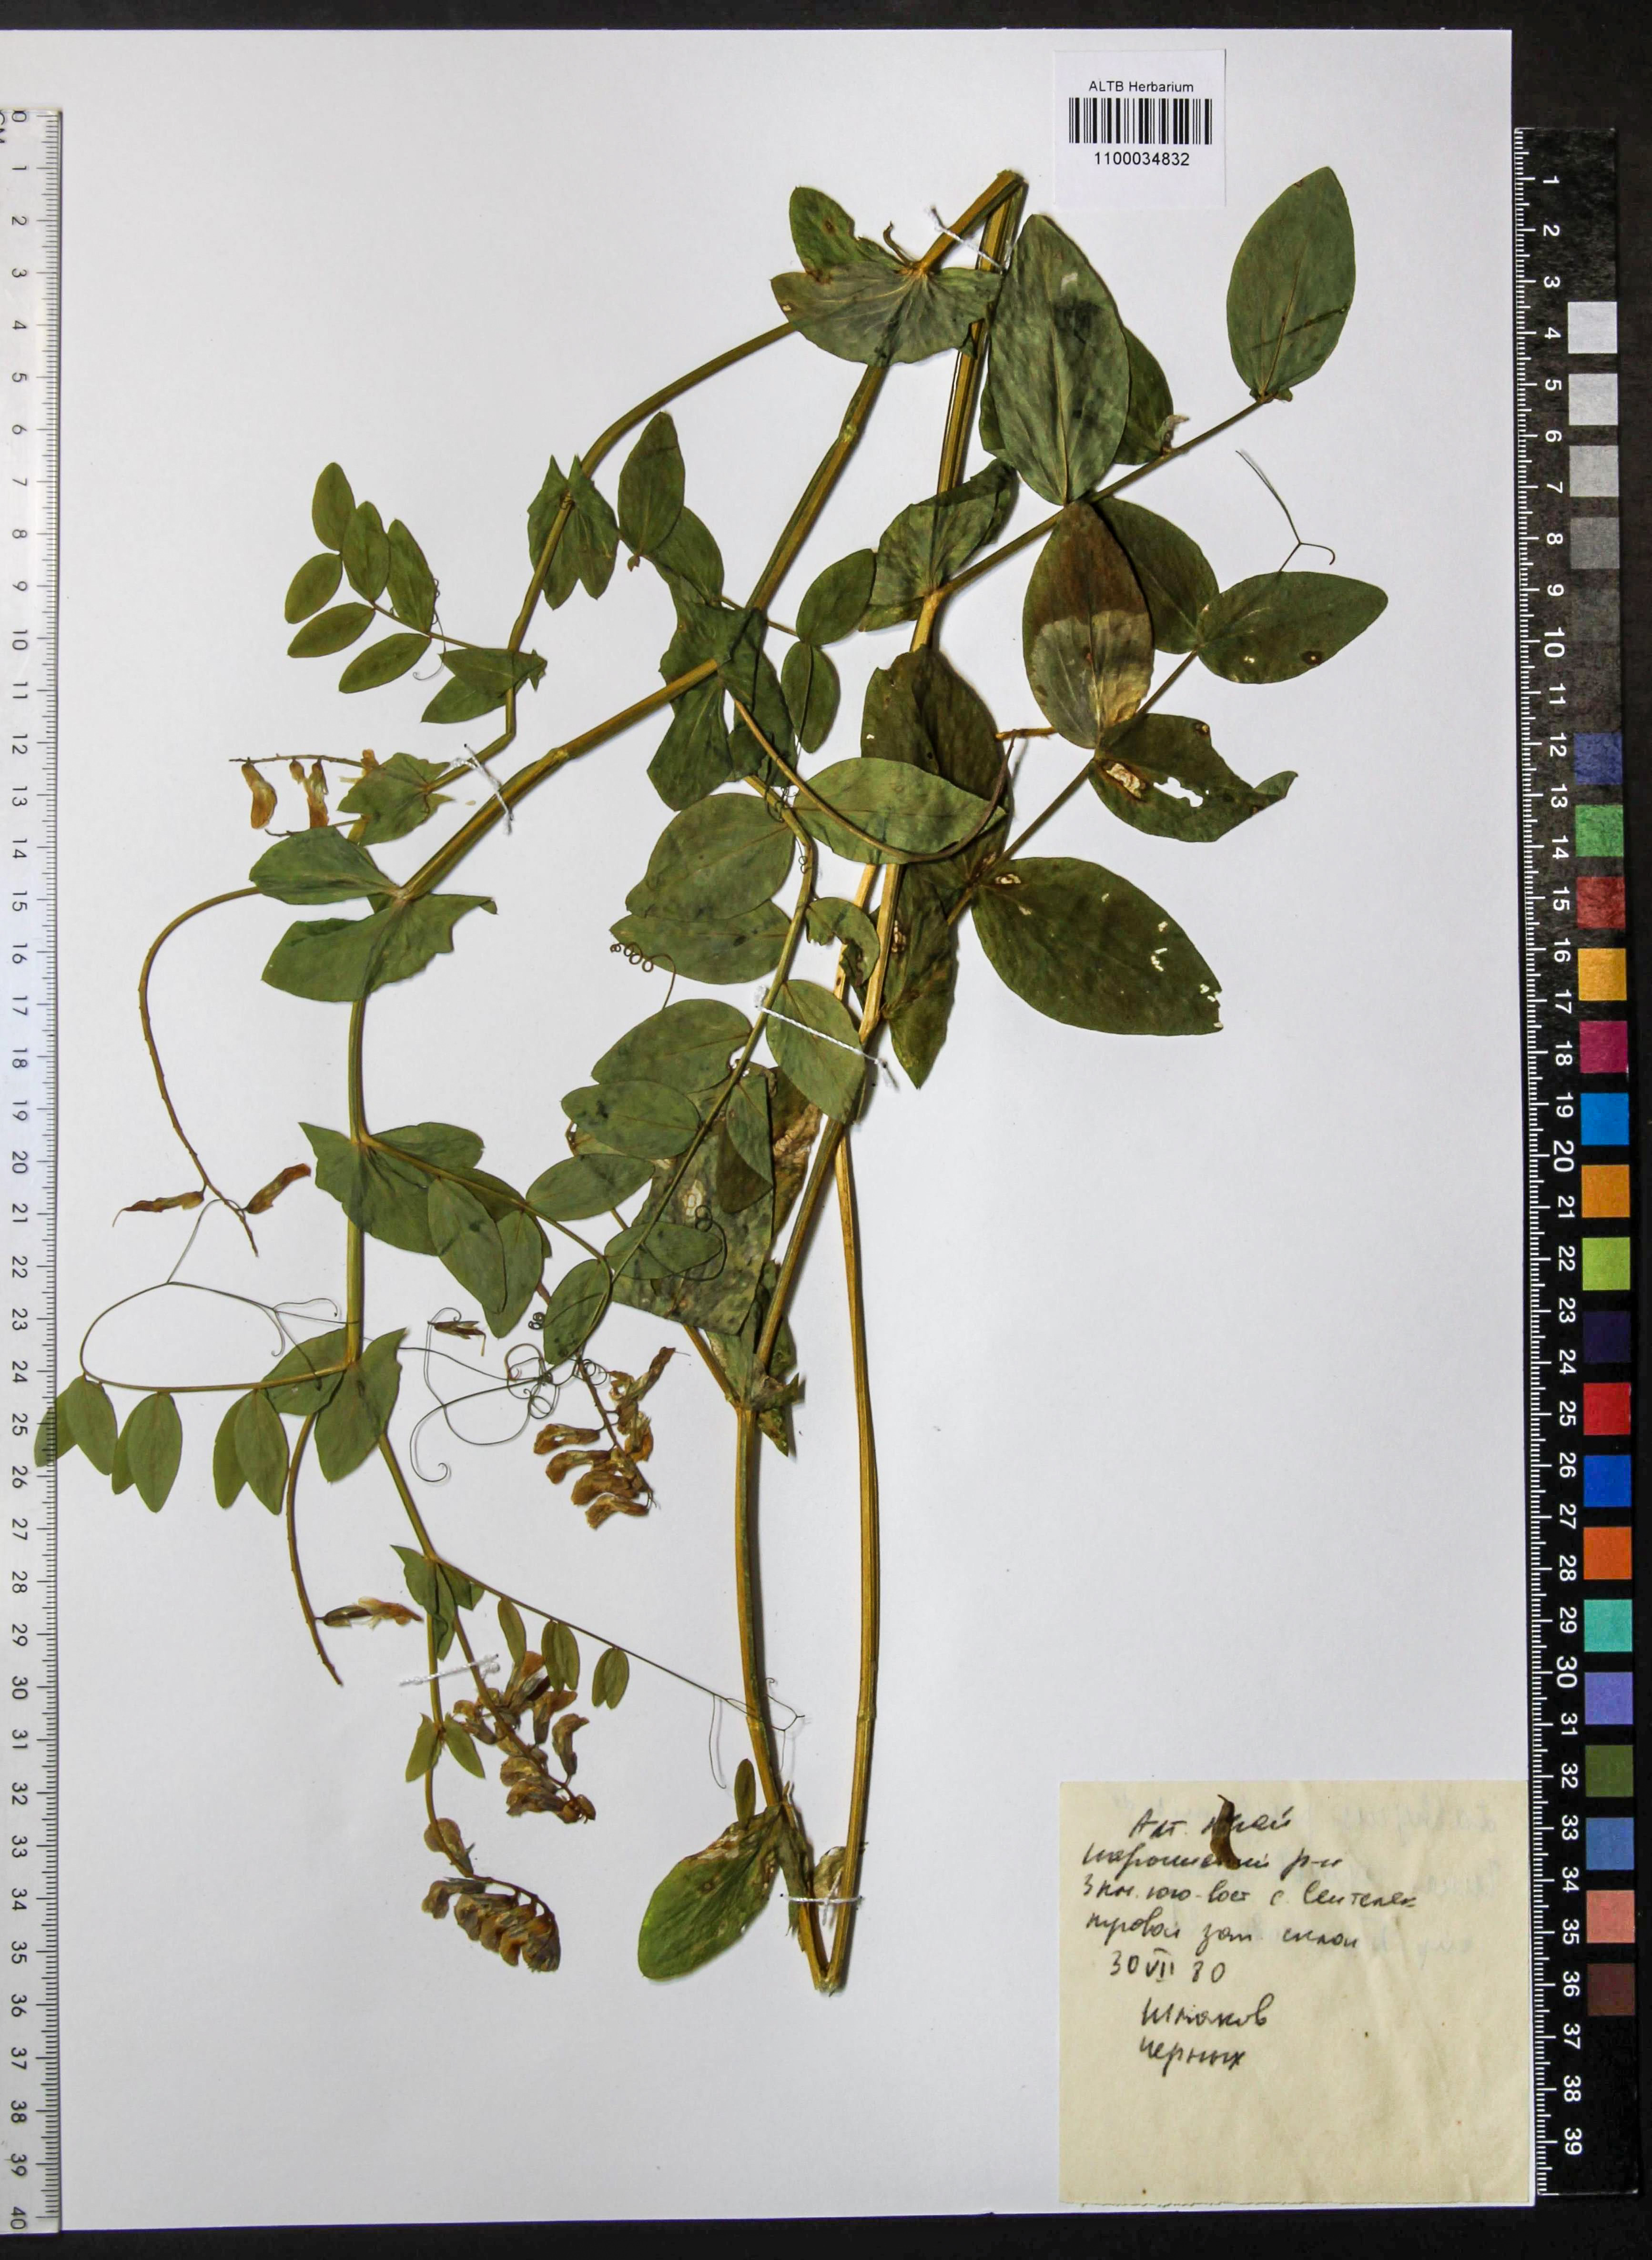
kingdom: Plantae
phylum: Tracheophyta
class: Magnoliopsida
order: Fabales
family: Fabaceae
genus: Lathyrus
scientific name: Lathyrus pisiformis
